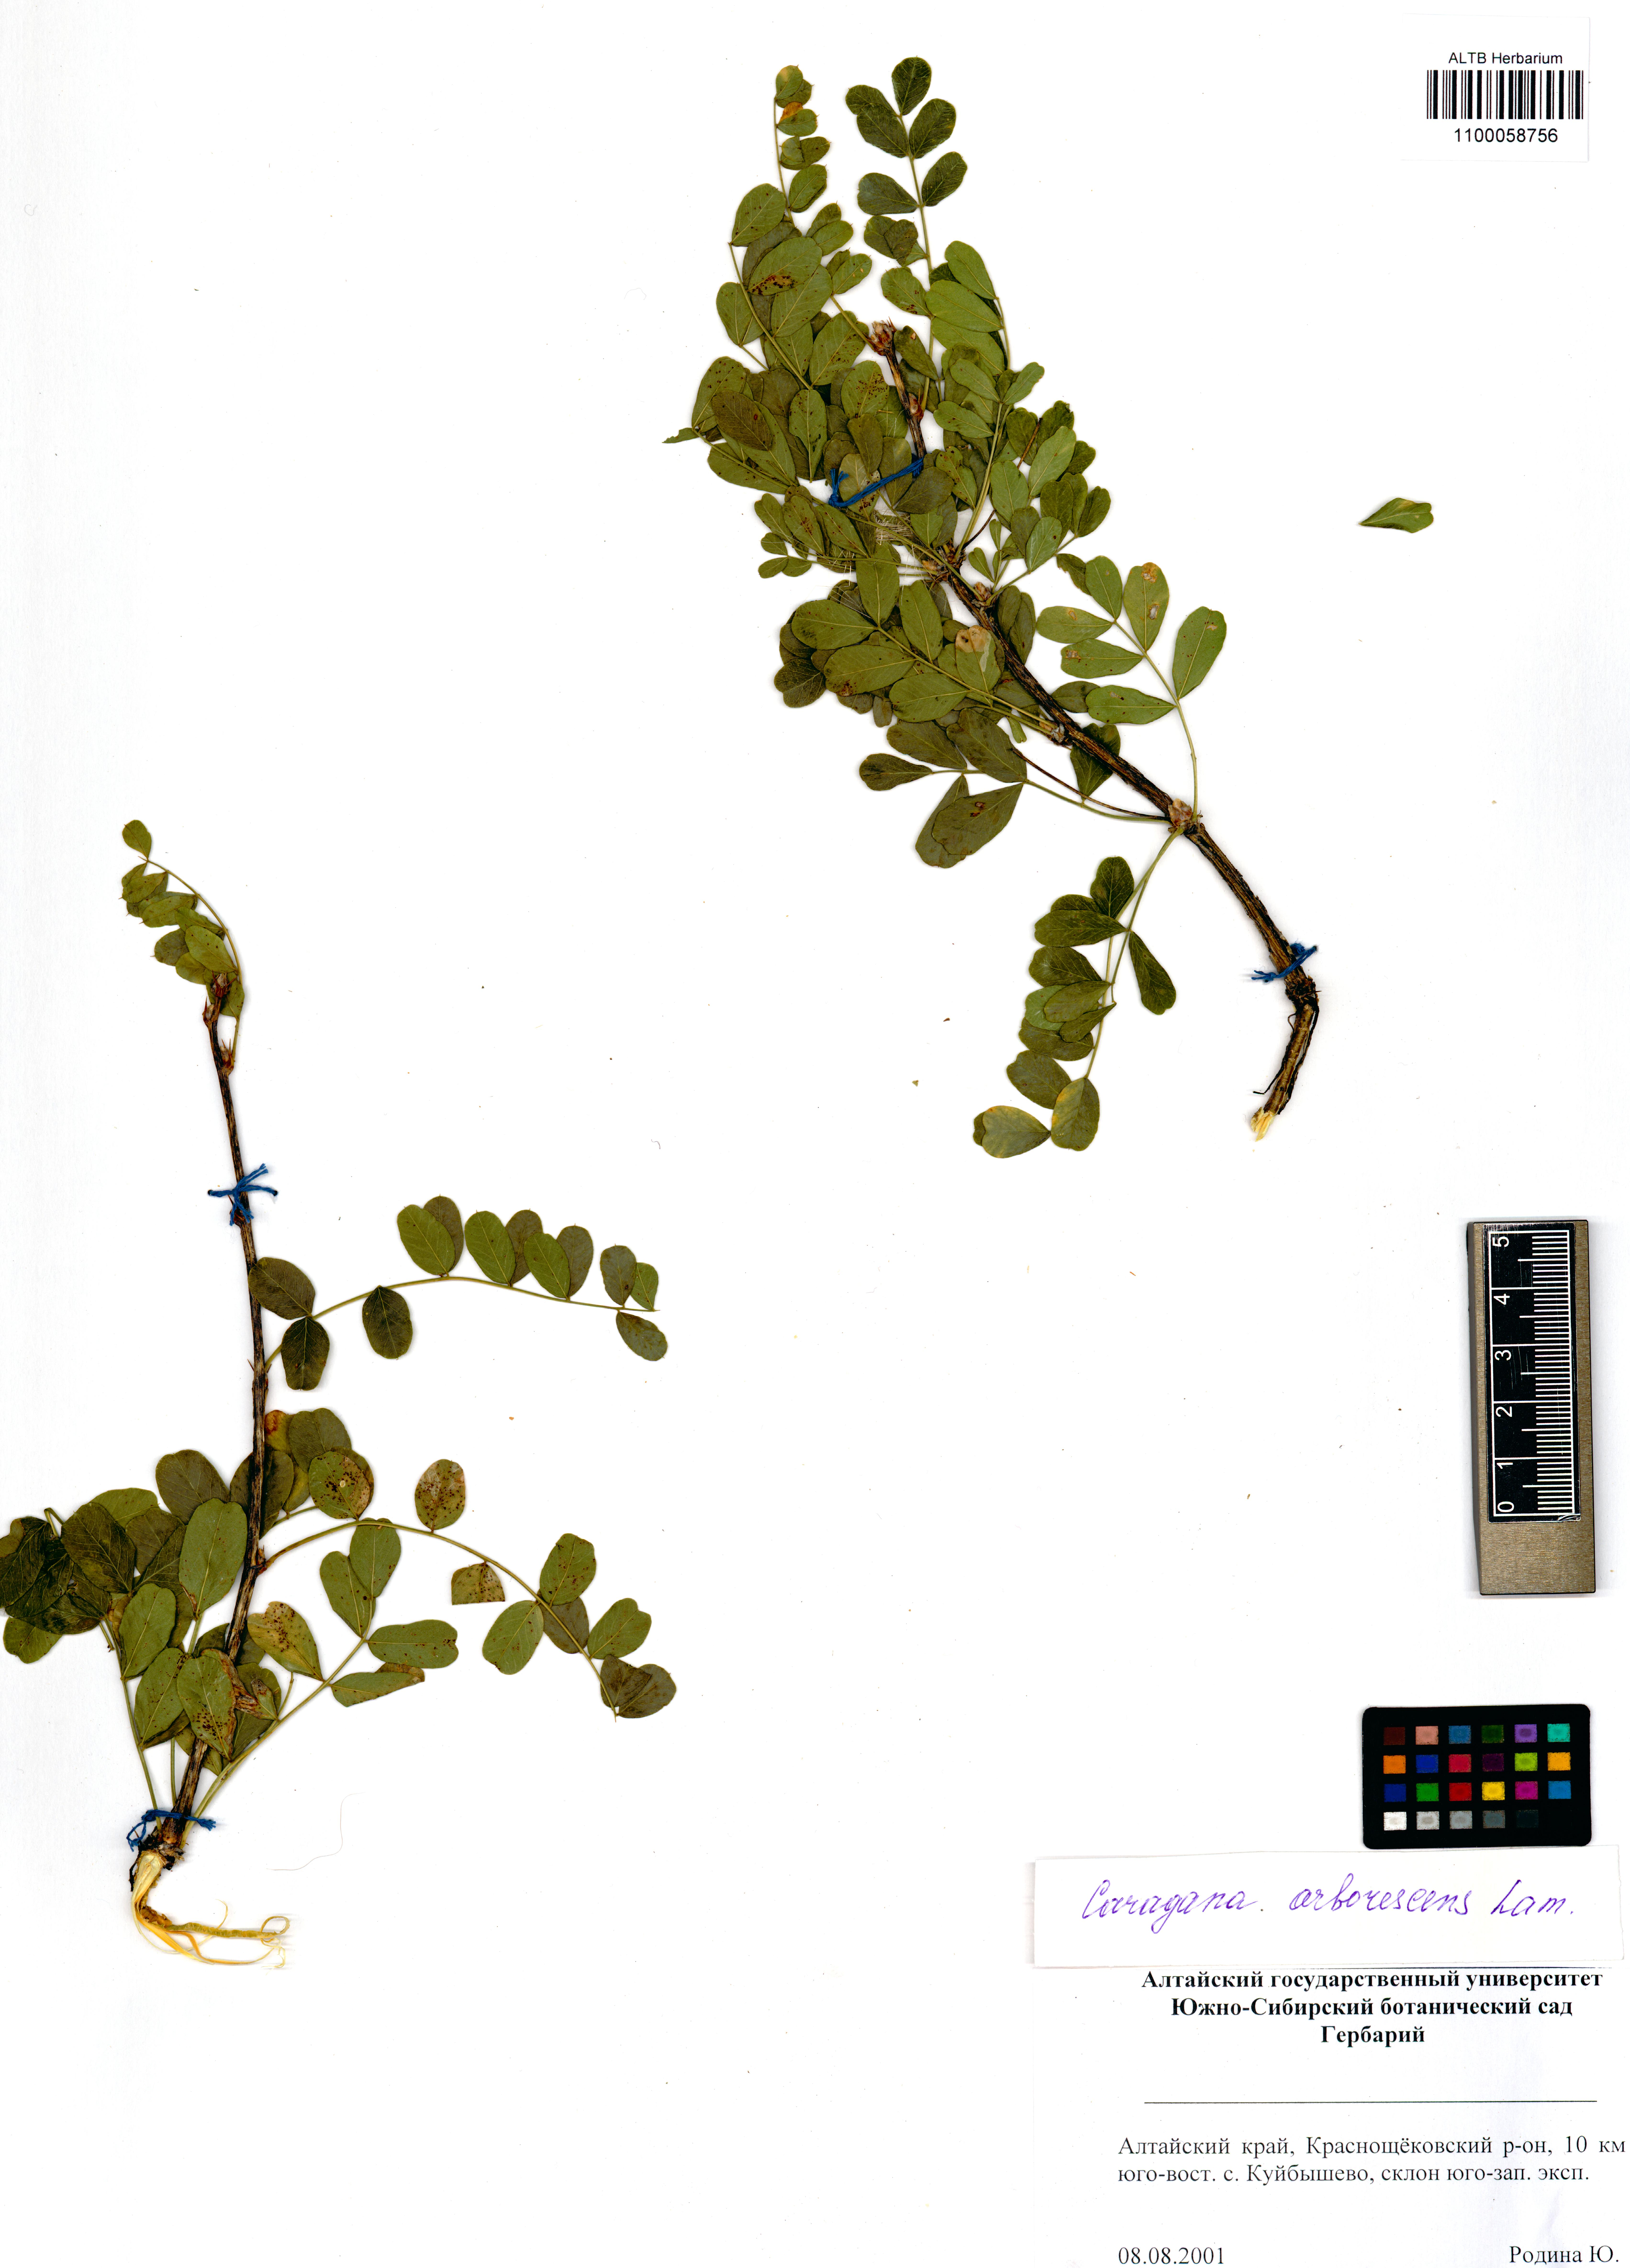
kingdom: Plantae
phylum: Tracheophyta
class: Magnoliopsida
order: Fabales
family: Fabaceae
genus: Caragana
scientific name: Caragana arborescens
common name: Siberian peashrub
